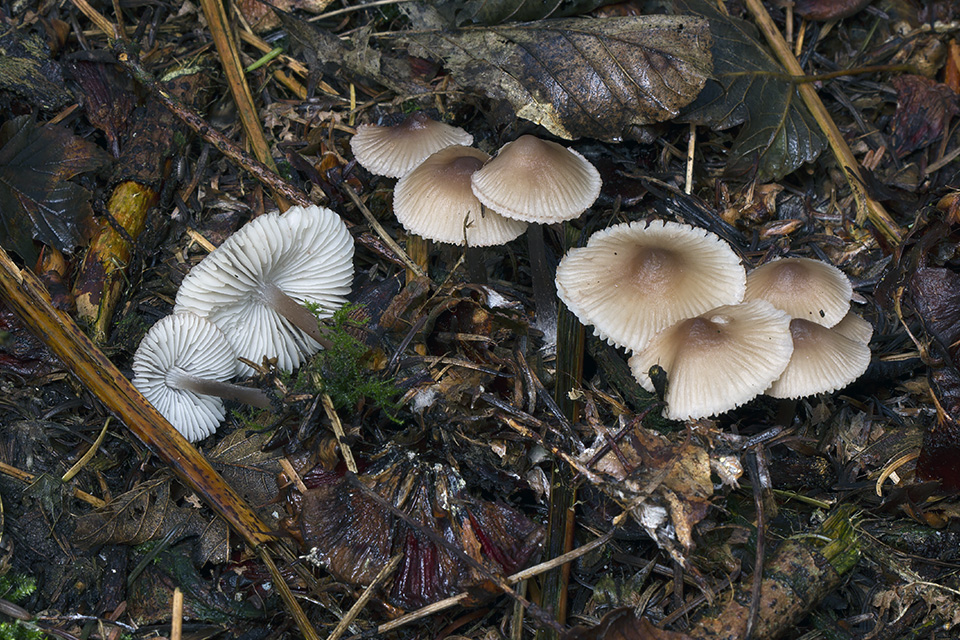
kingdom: Fungi
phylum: Basidiomycota
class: Agaricomycetes
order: Agaricales
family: Mycenaceae
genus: Mycena
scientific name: Mycena zephirus
